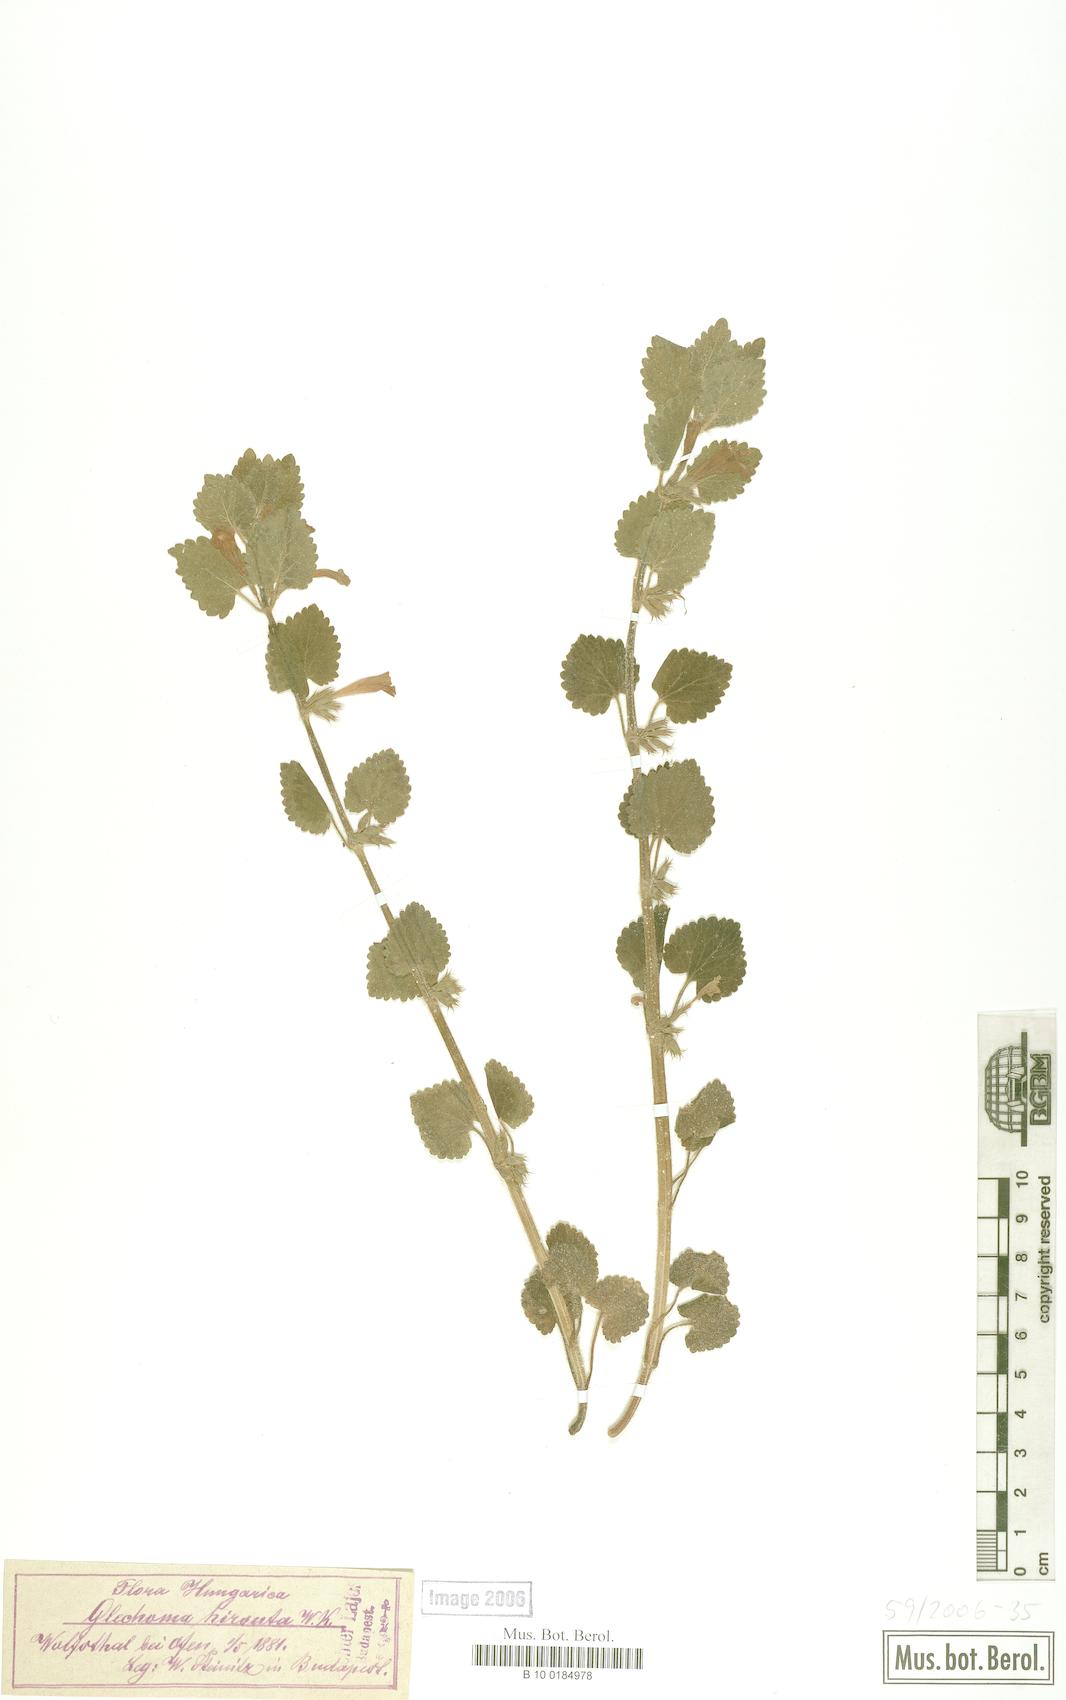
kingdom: Plantae
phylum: Tracheophyta
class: Magnoliopsida
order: Lamiales
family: Lamiaceae
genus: Glechoma
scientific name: Glechoma hirsuta
